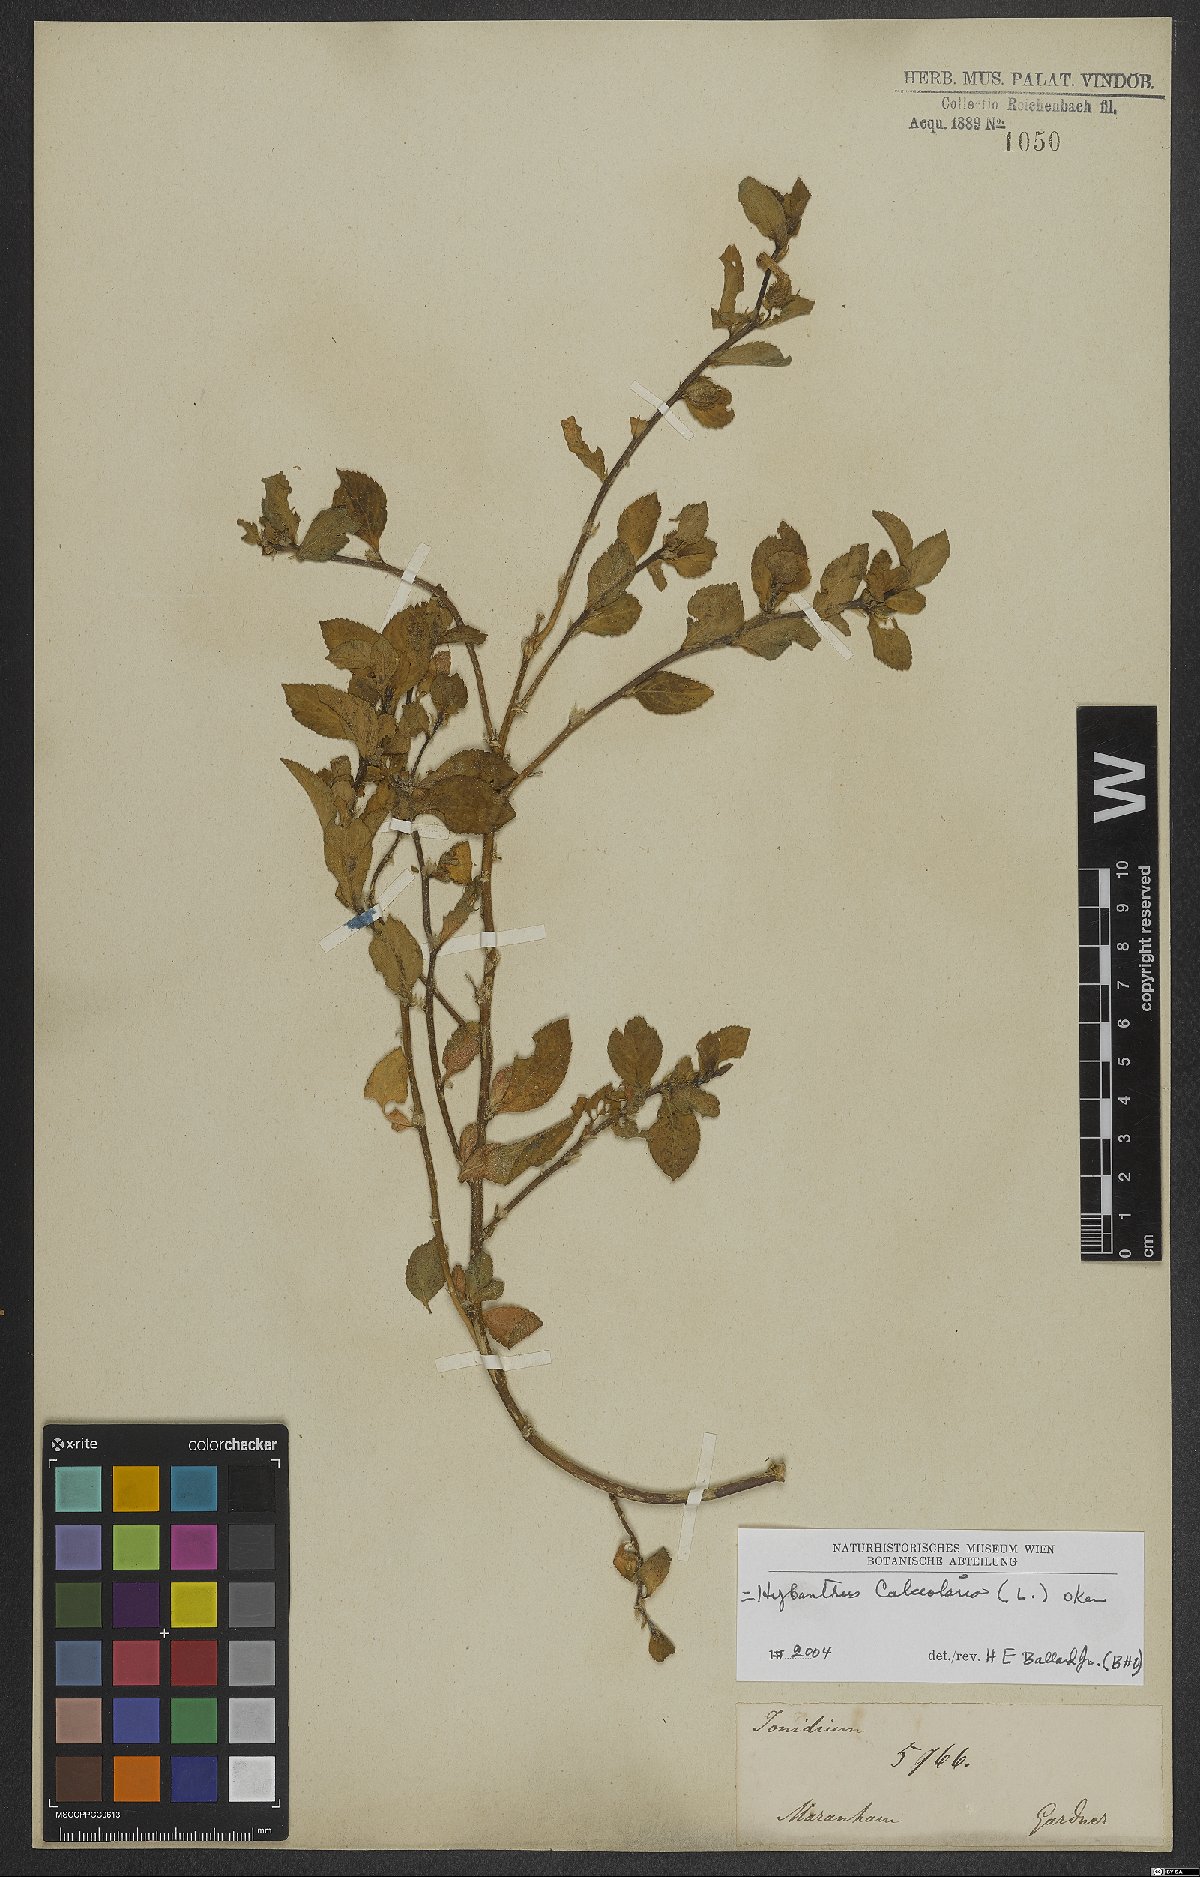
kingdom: Plantae
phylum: Tracheophyta
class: Magnoliopsida
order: Malpighiales
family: Violaceae
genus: Pombalia
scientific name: Pombalia calceolaria
